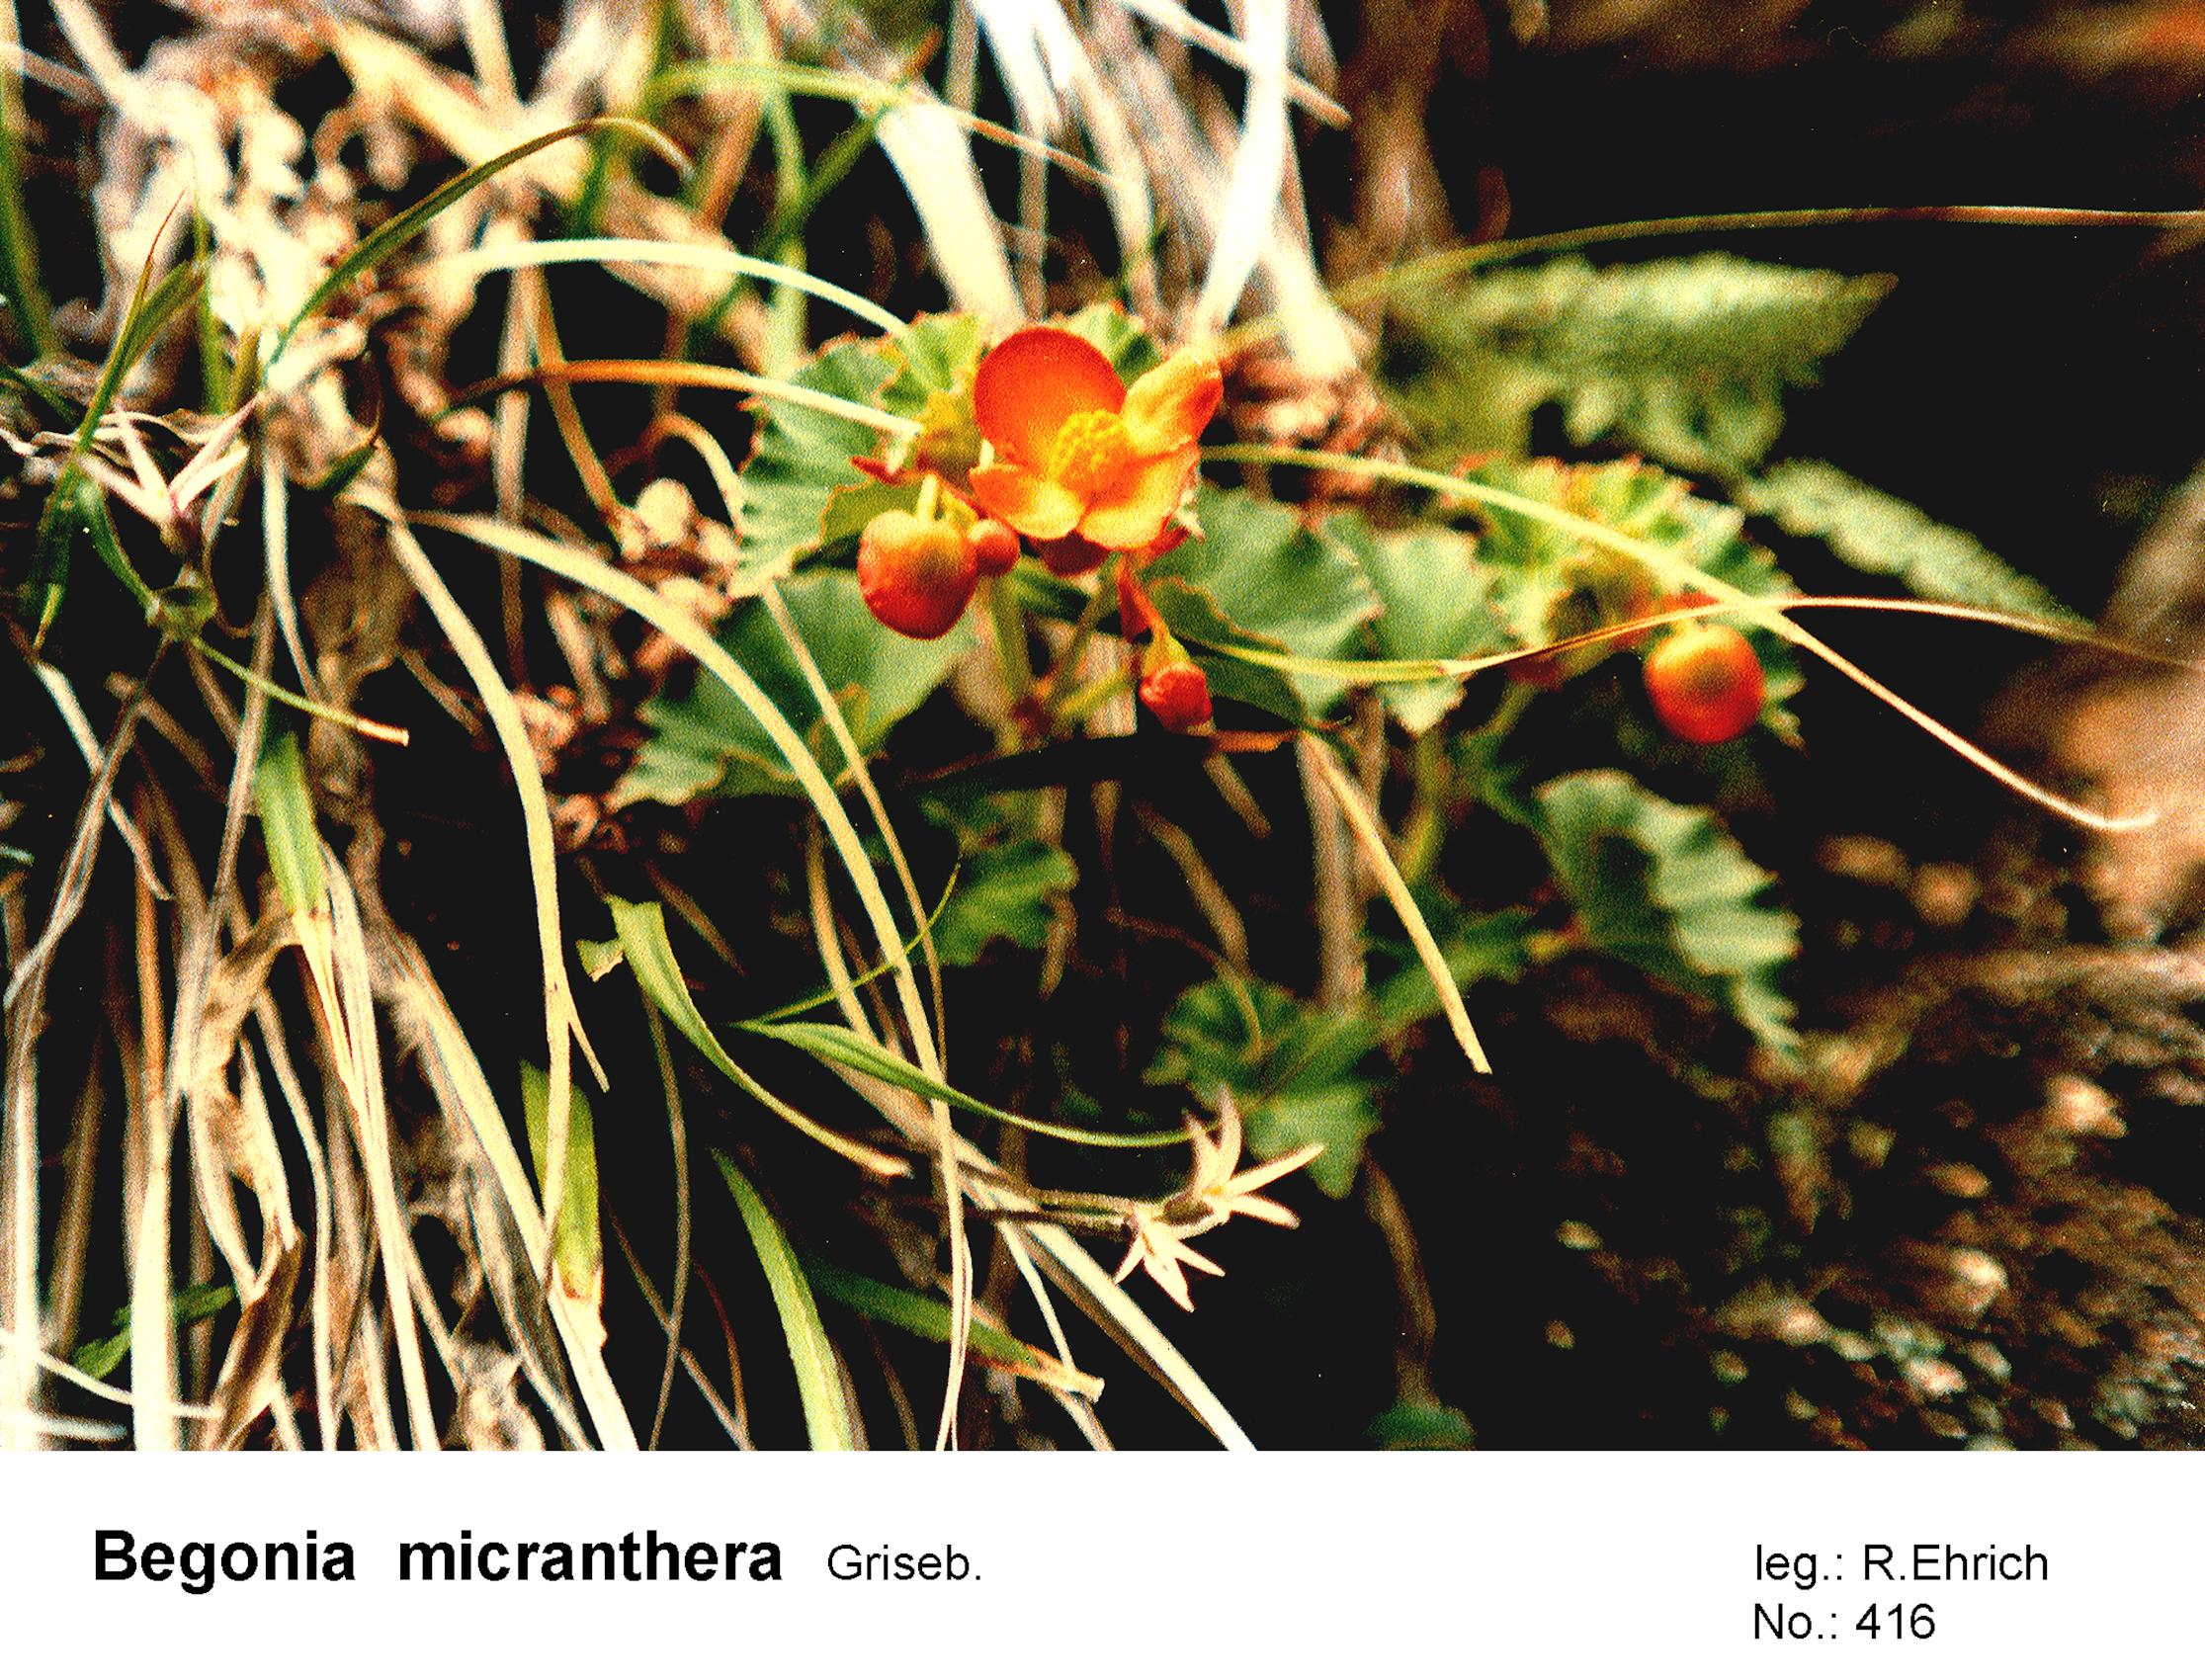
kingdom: Plantae
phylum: Tracheophyta
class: Magnoliopsida
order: Cucurbitales
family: Begoniaceae
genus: Begonia
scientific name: Begonia micranthera
